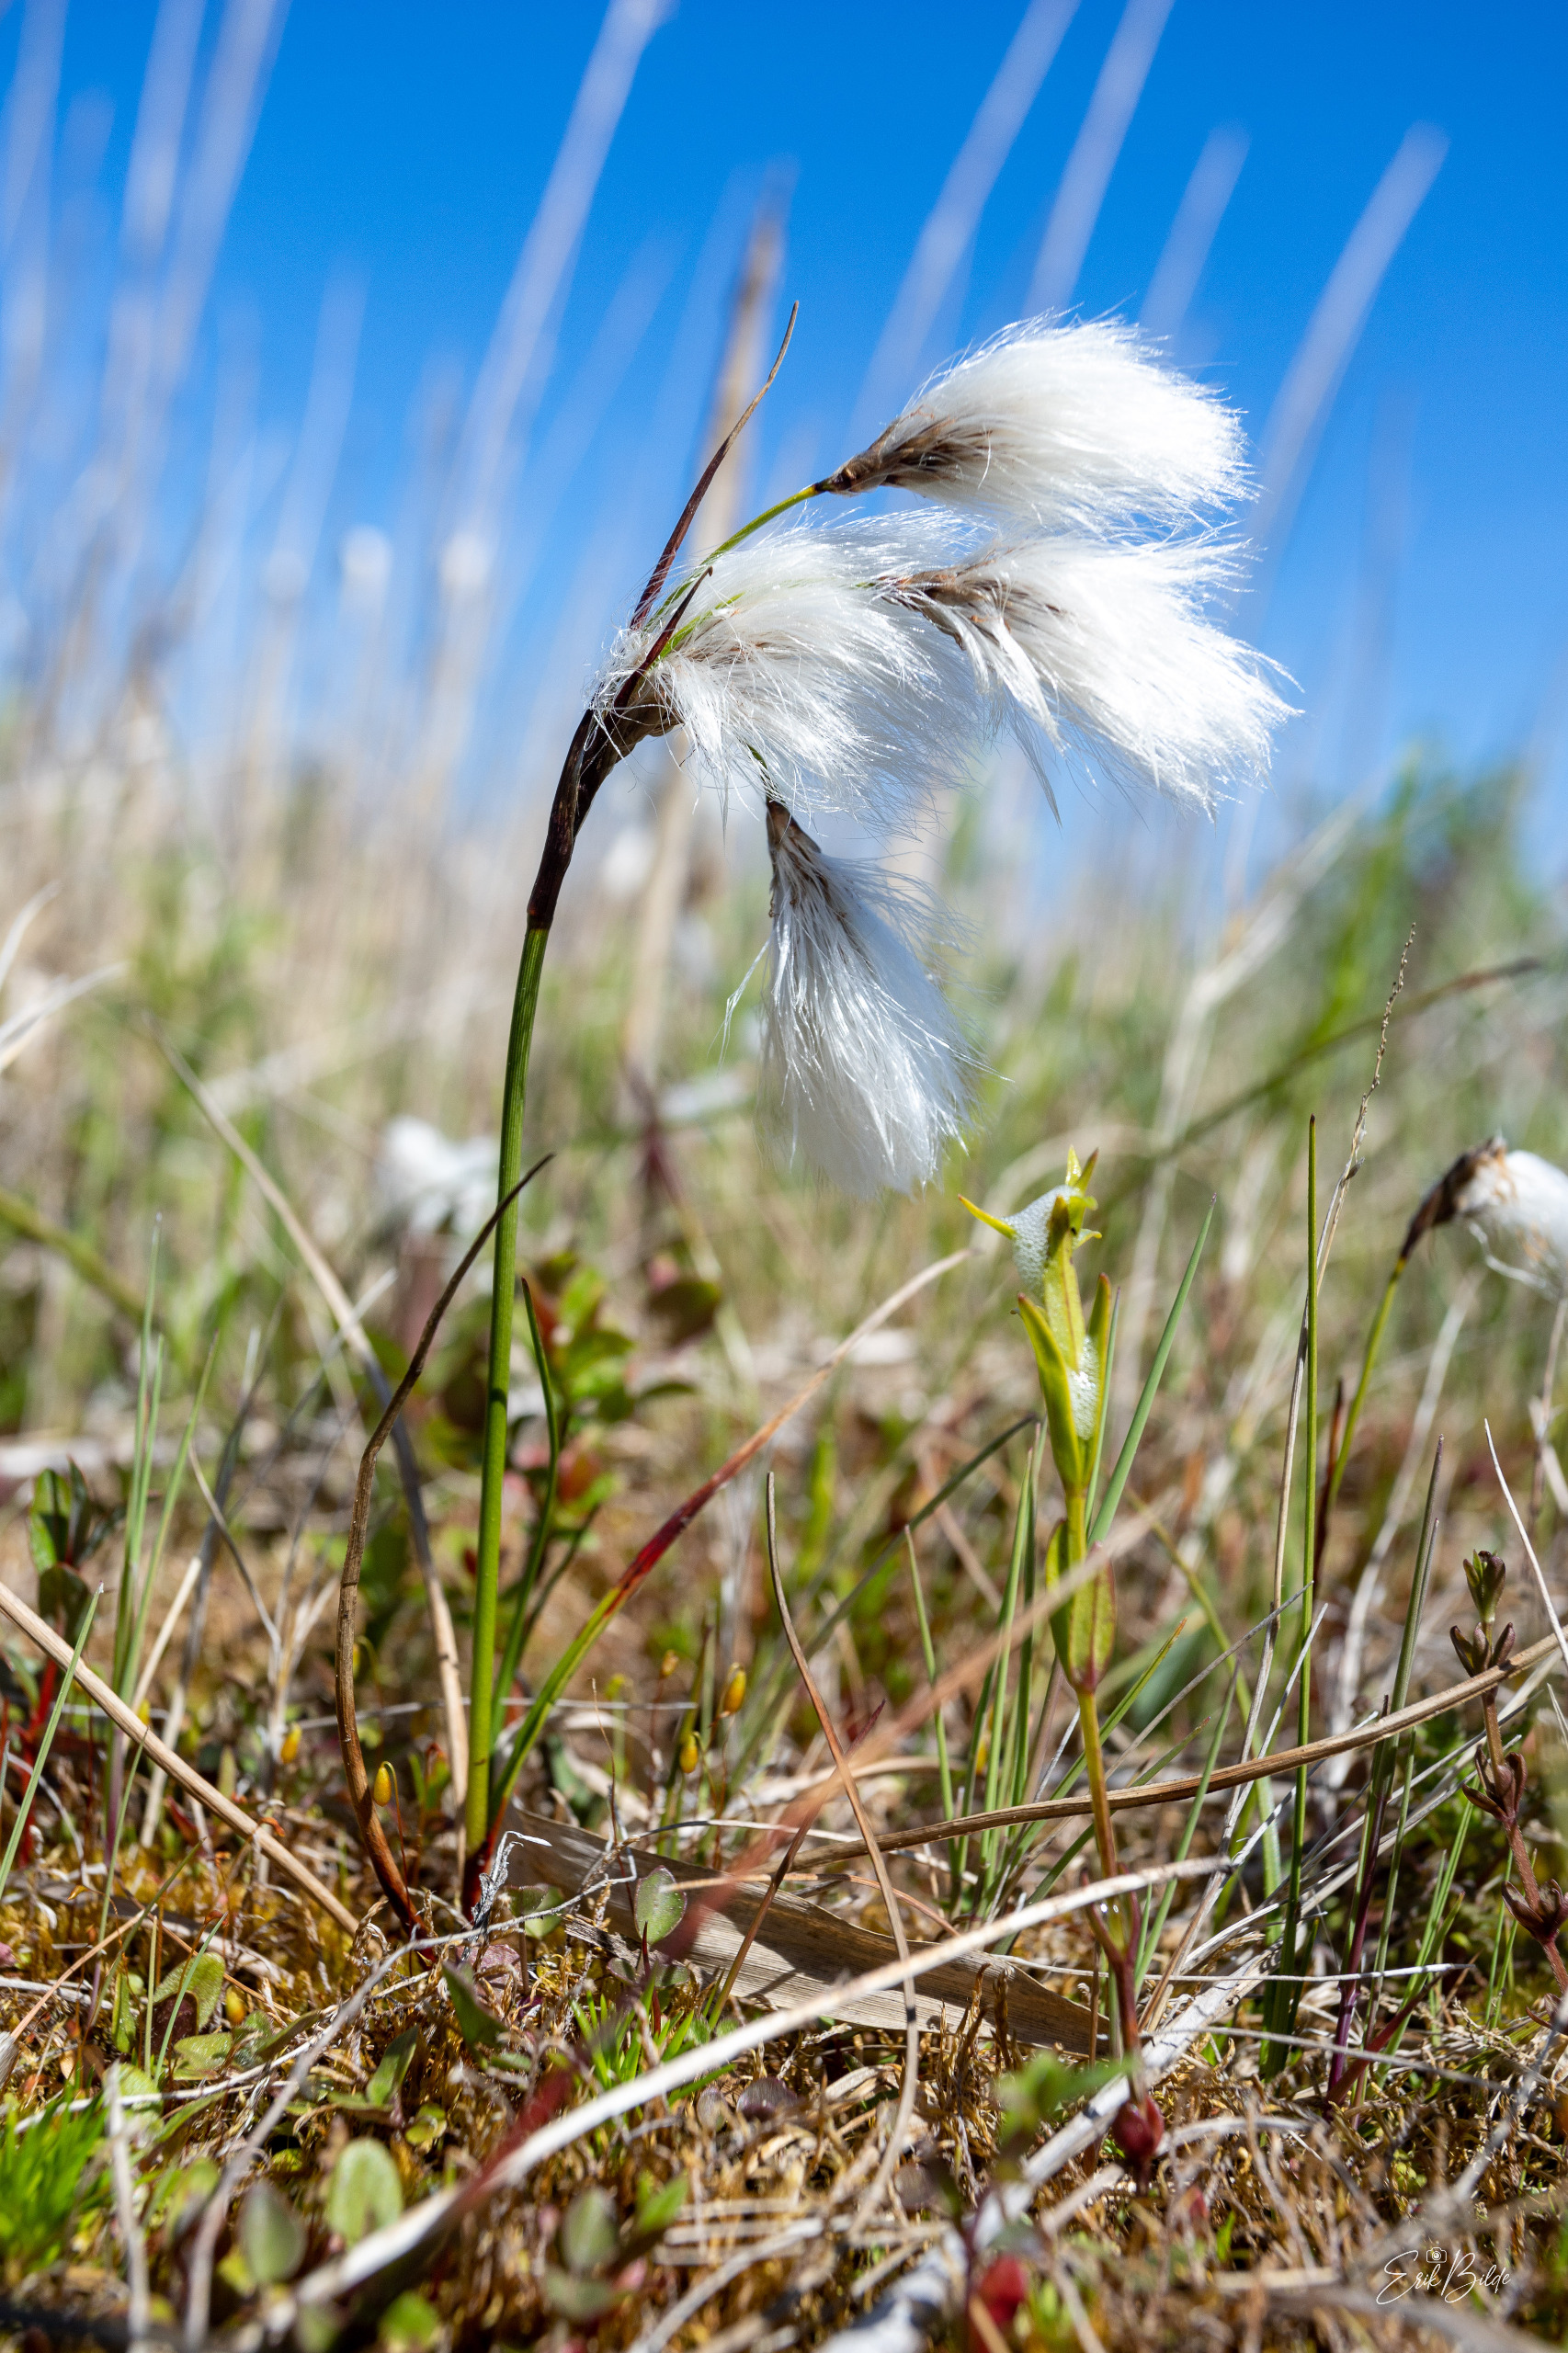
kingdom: Plantae
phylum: Tracheophyta
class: Liliopsida
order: Poales
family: Cyperaceae
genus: Eriophorum
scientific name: Eriophorum angustifolium
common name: Smalbladet kæruld
